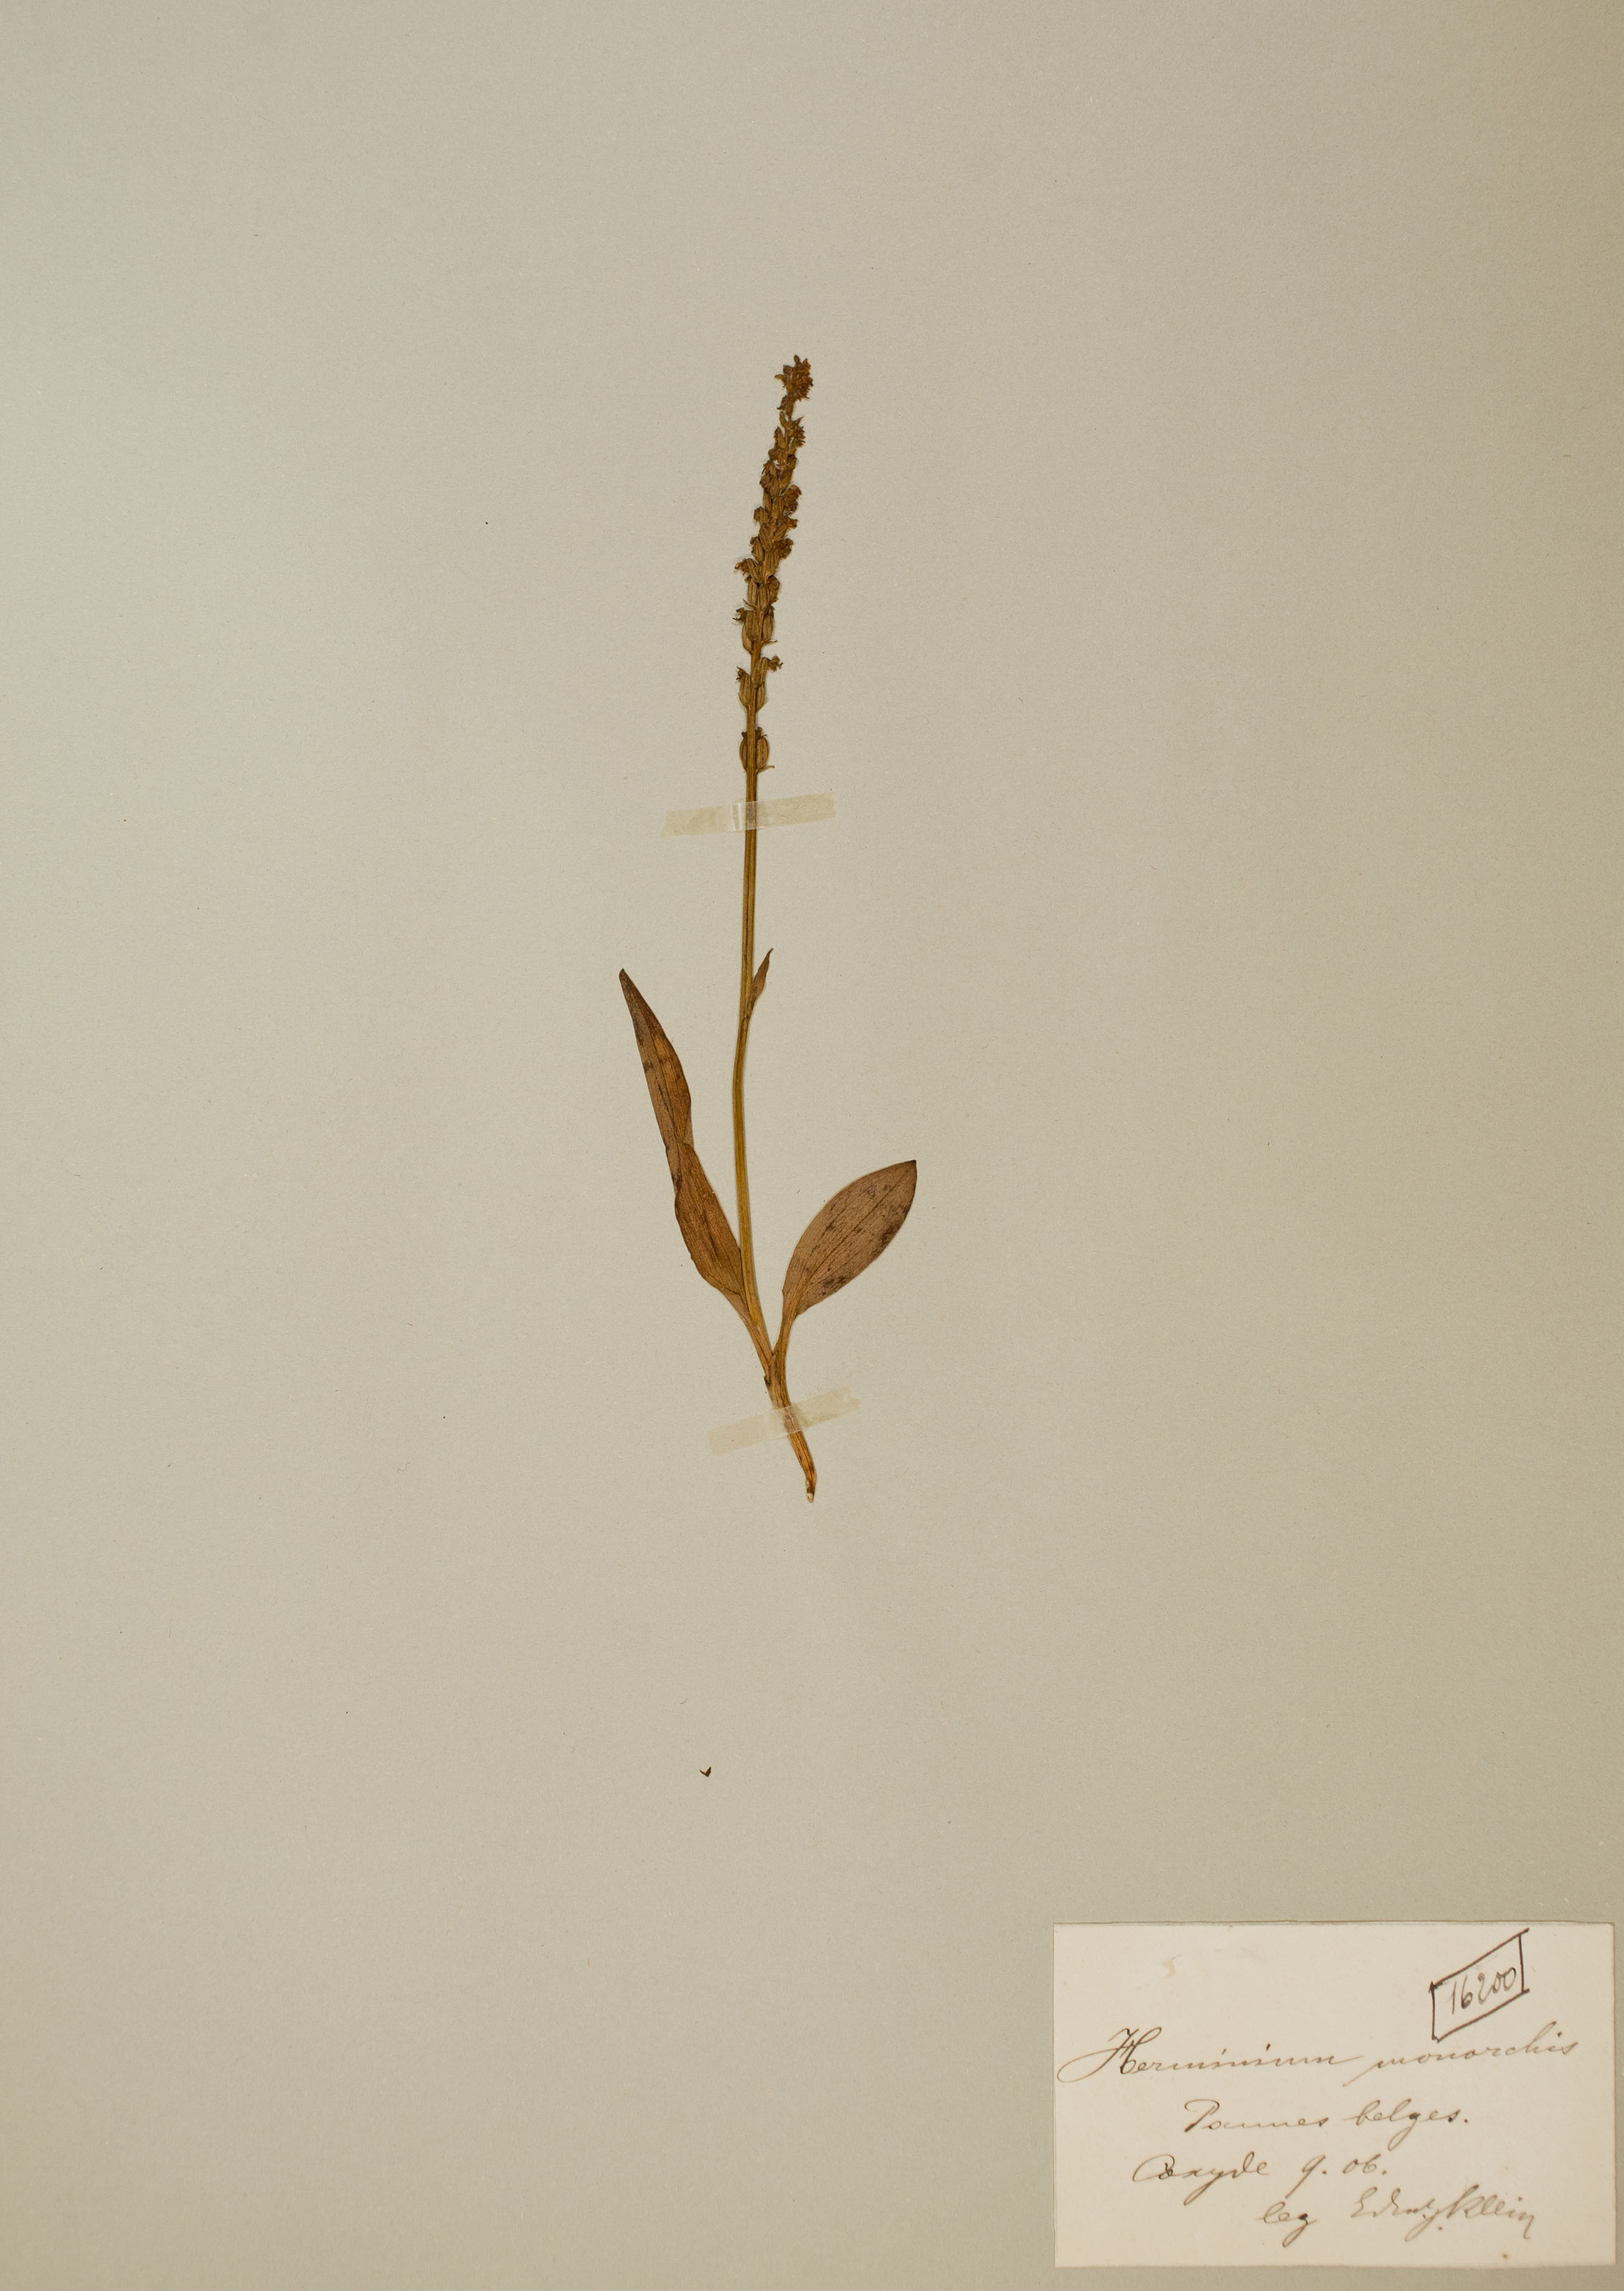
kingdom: Plantae
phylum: Tracheophyta
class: Liliopsida
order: Asparagales
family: Orchidaceae
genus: Herminium
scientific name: Herminium monorchis
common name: Musk orchid
